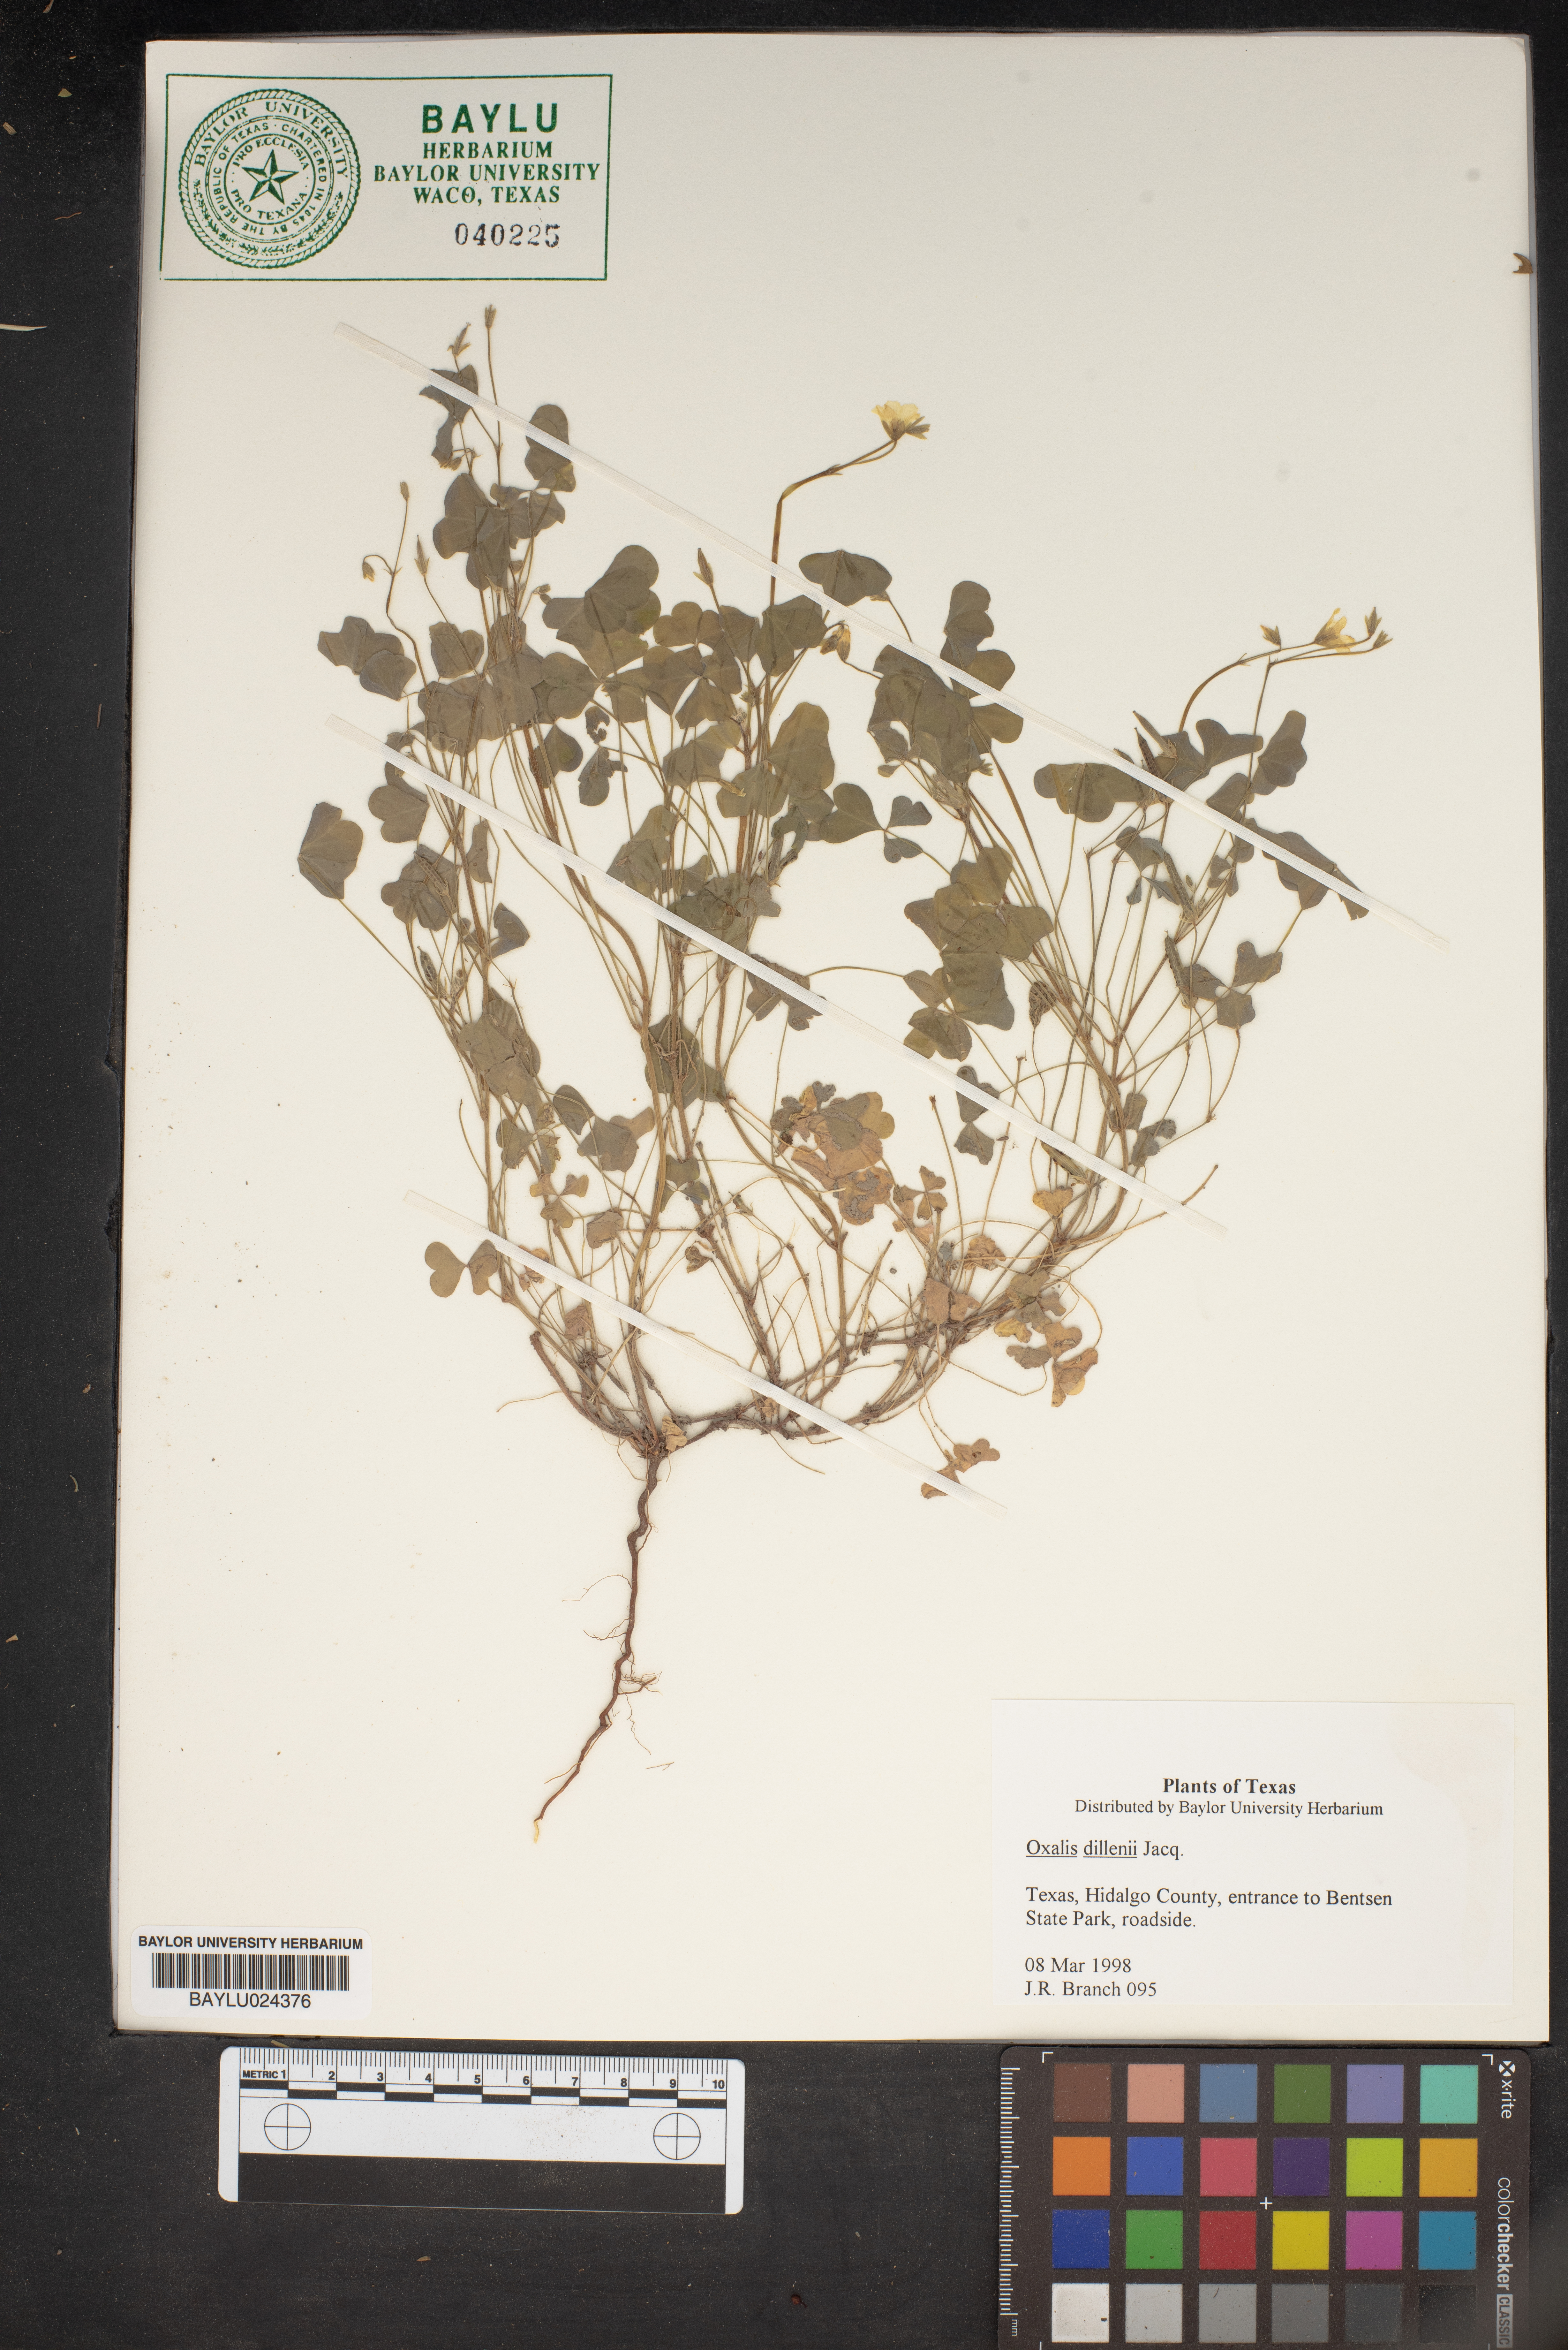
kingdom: Plantae
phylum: Tracheophyta
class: Magnoliopsida
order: Oxalidales
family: Oxalidaceae
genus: Oxalis
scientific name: Oxalis dillenii
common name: Sussex yellow-sorrel
